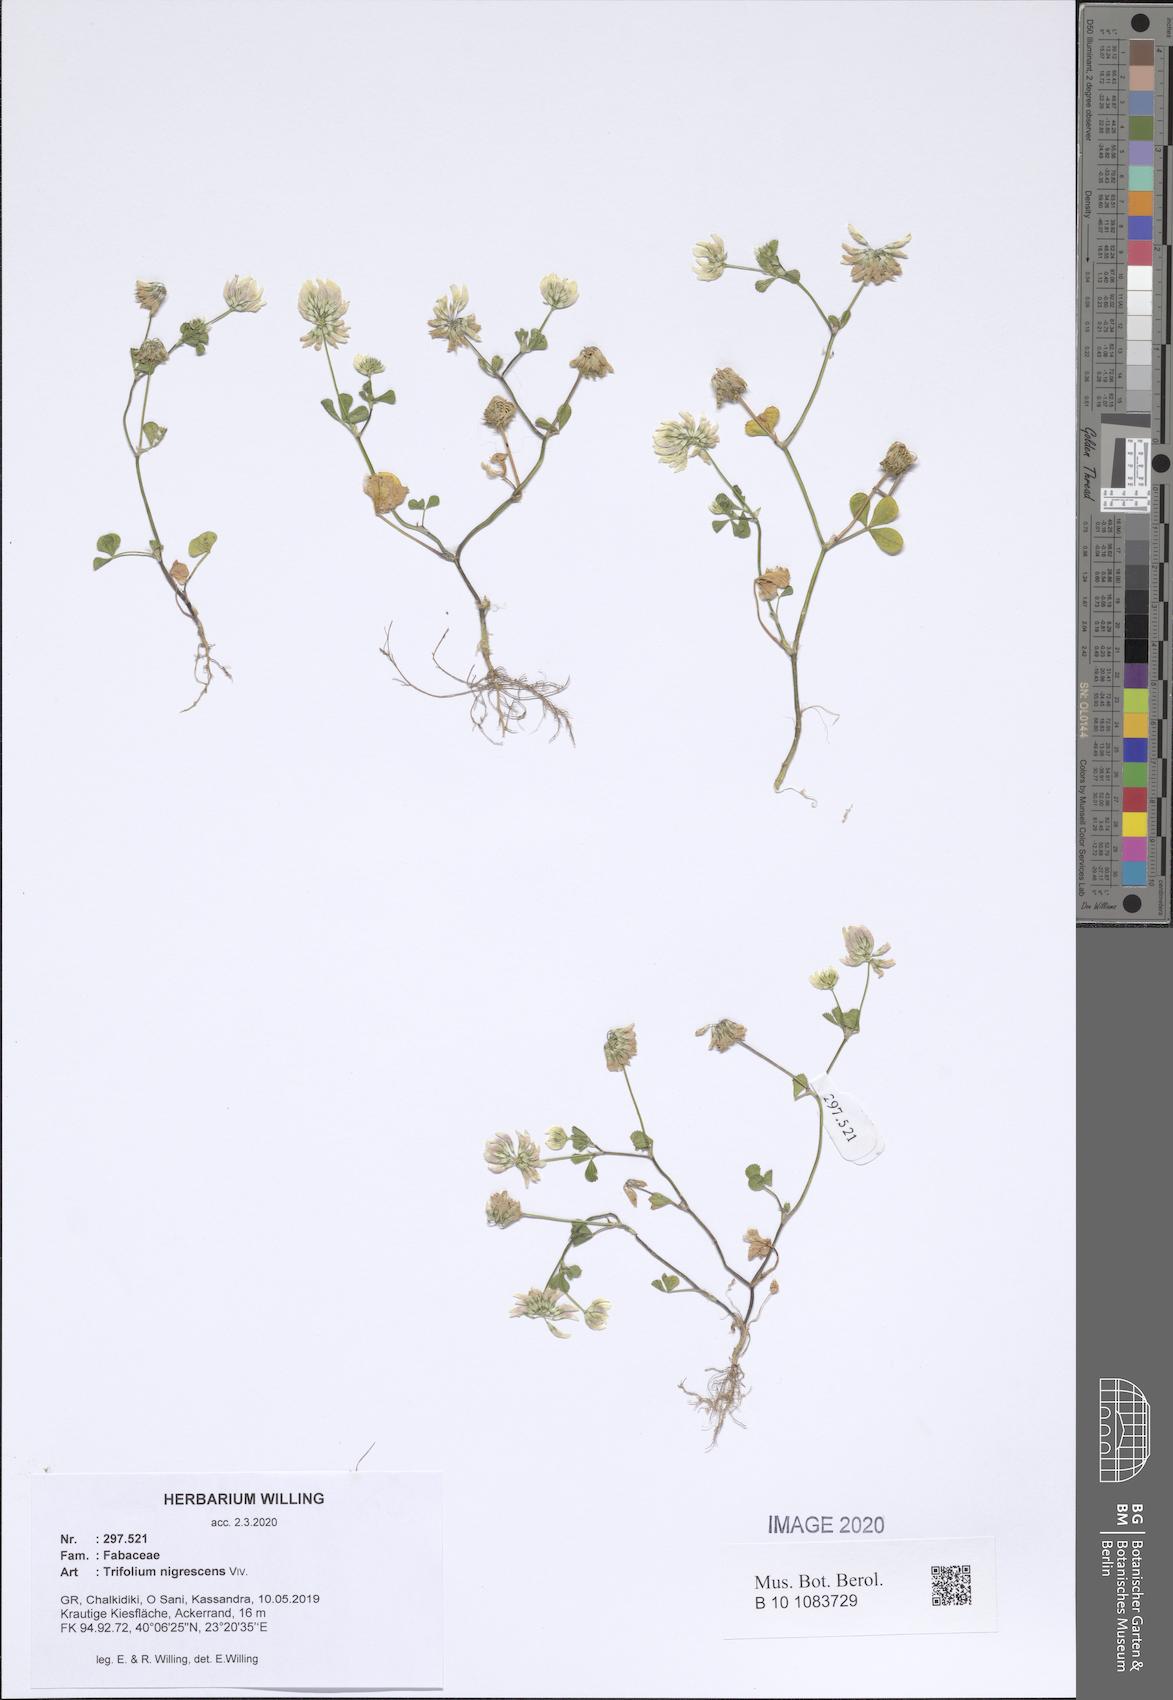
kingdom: Plantae
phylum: Tracheophyta
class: Magnoliopsida
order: Fabales
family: Fabaceae
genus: Trifolium
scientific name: Trifolium nigrescens
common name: Small white clover
